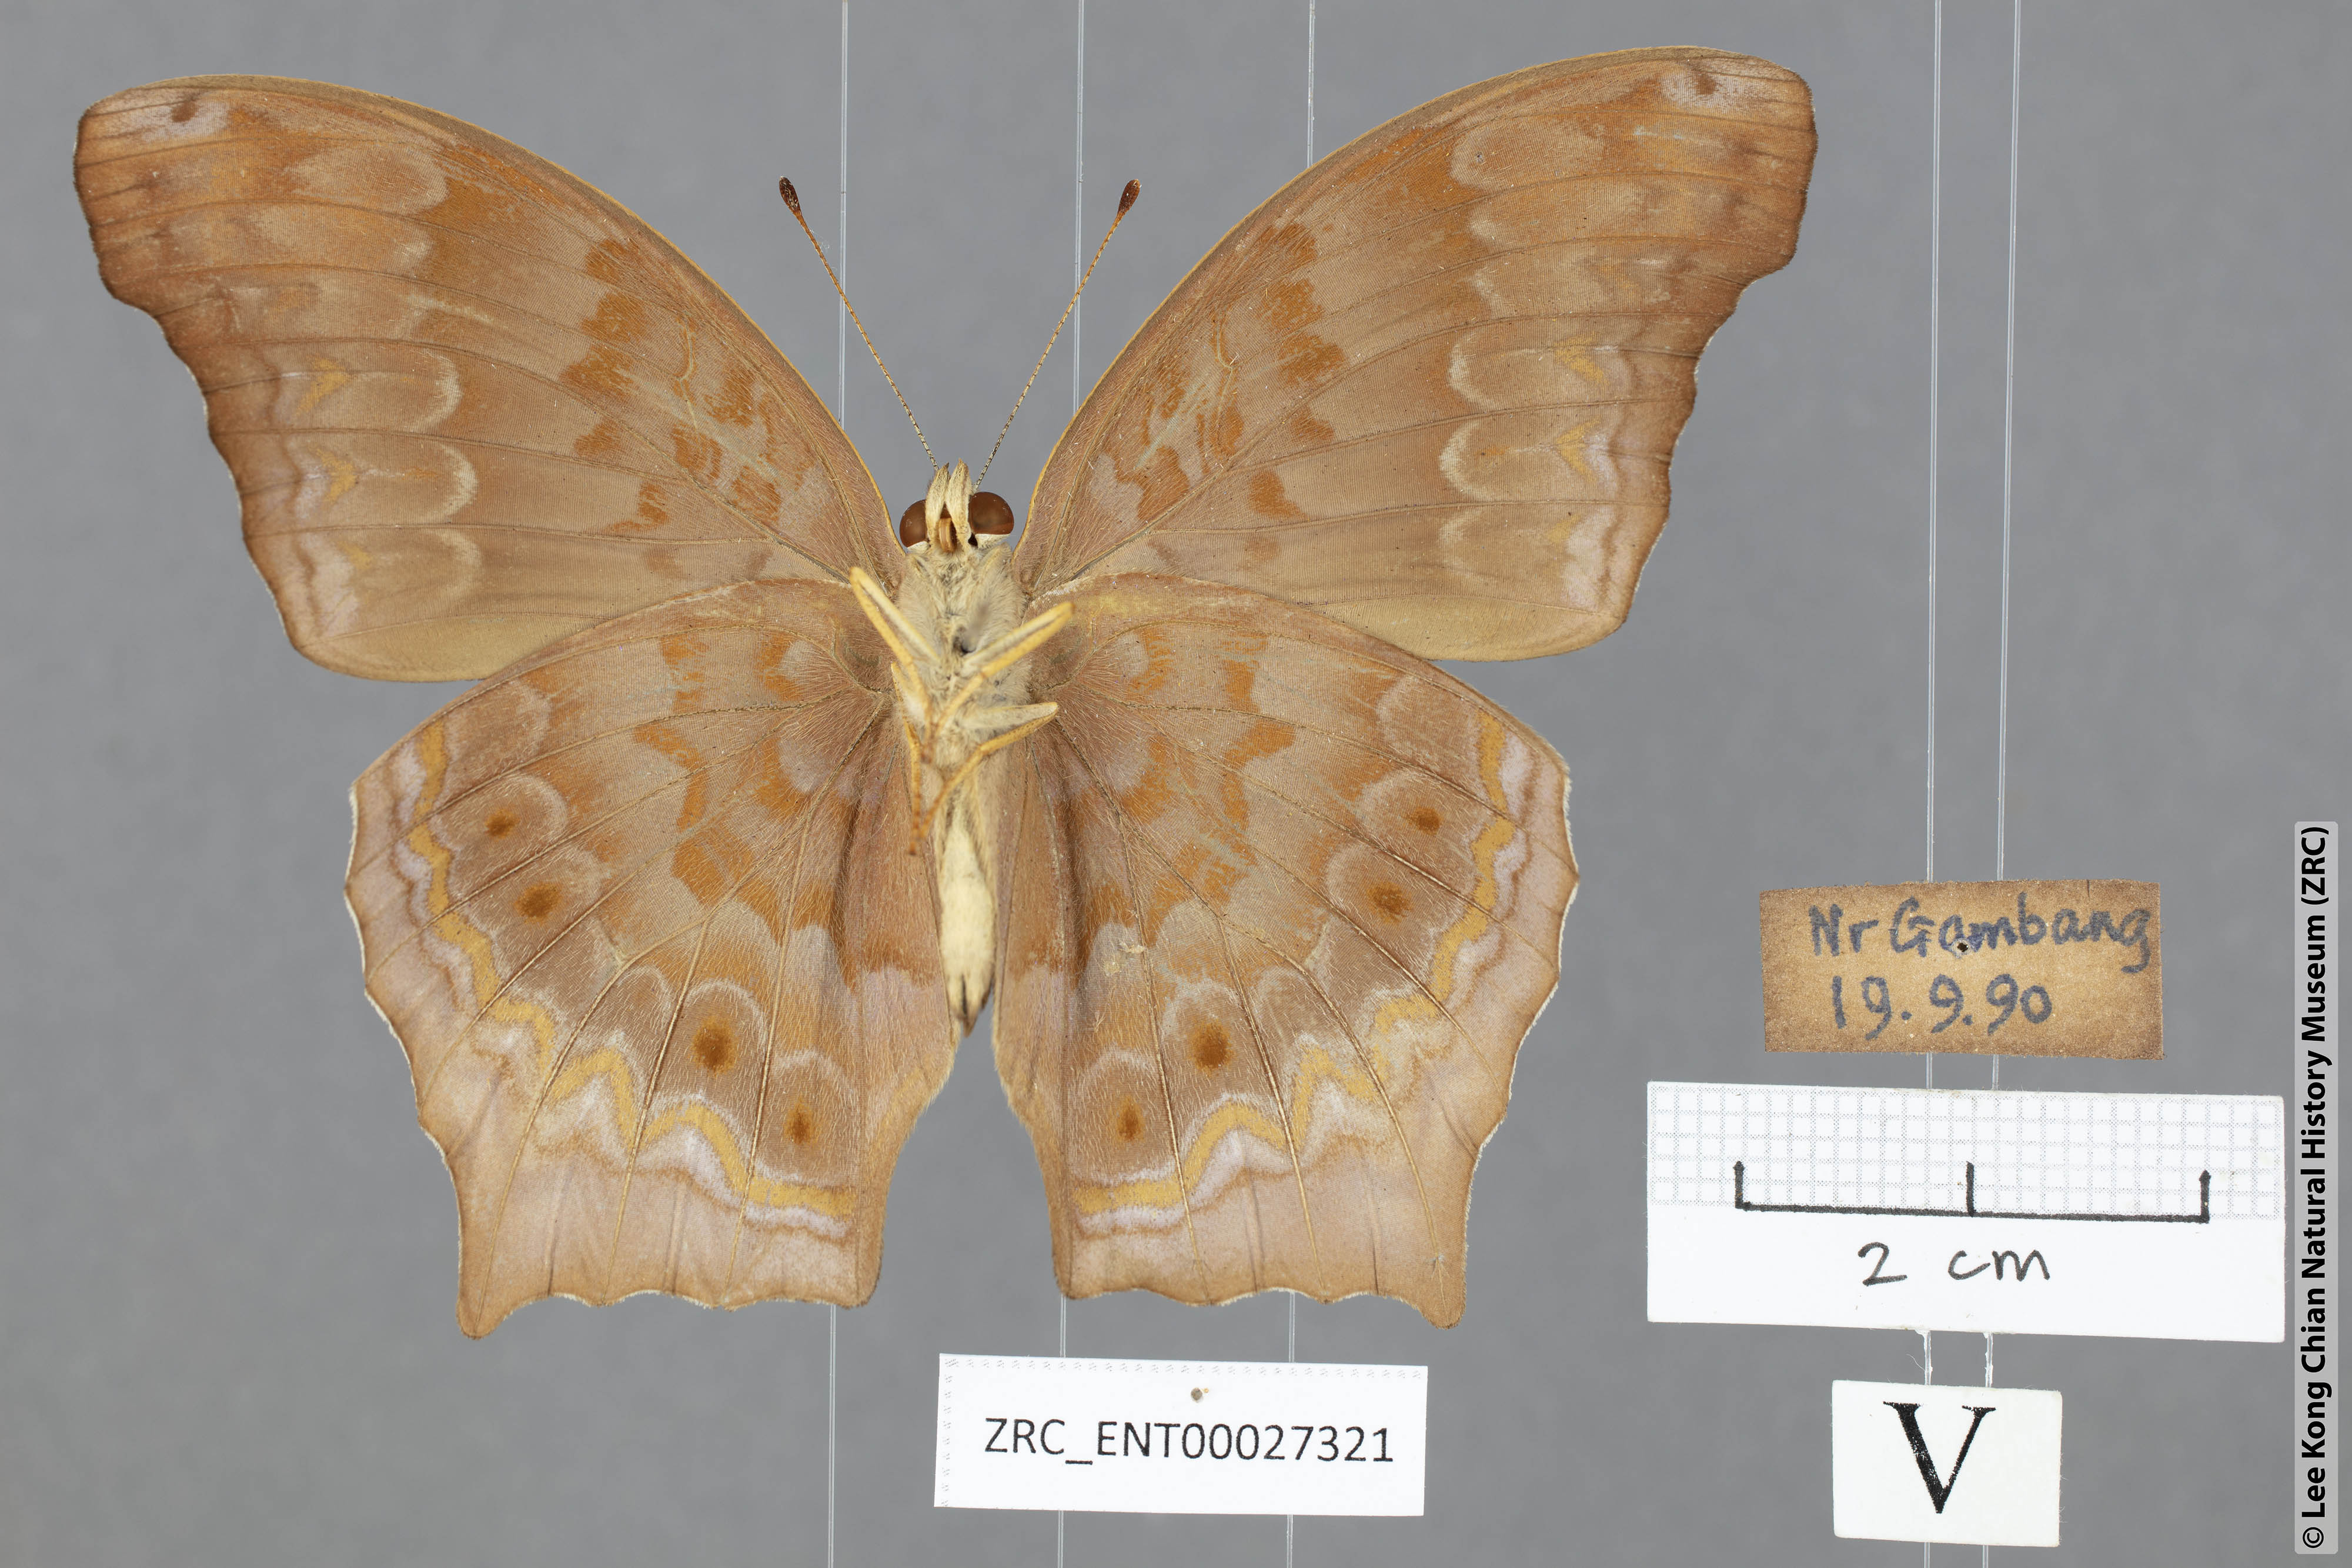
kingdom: Animalia
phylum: Arthropoda
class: Insecta
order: Lepidoptera
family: Nymphalidae
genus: Terinos
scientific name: Terinos atlita
